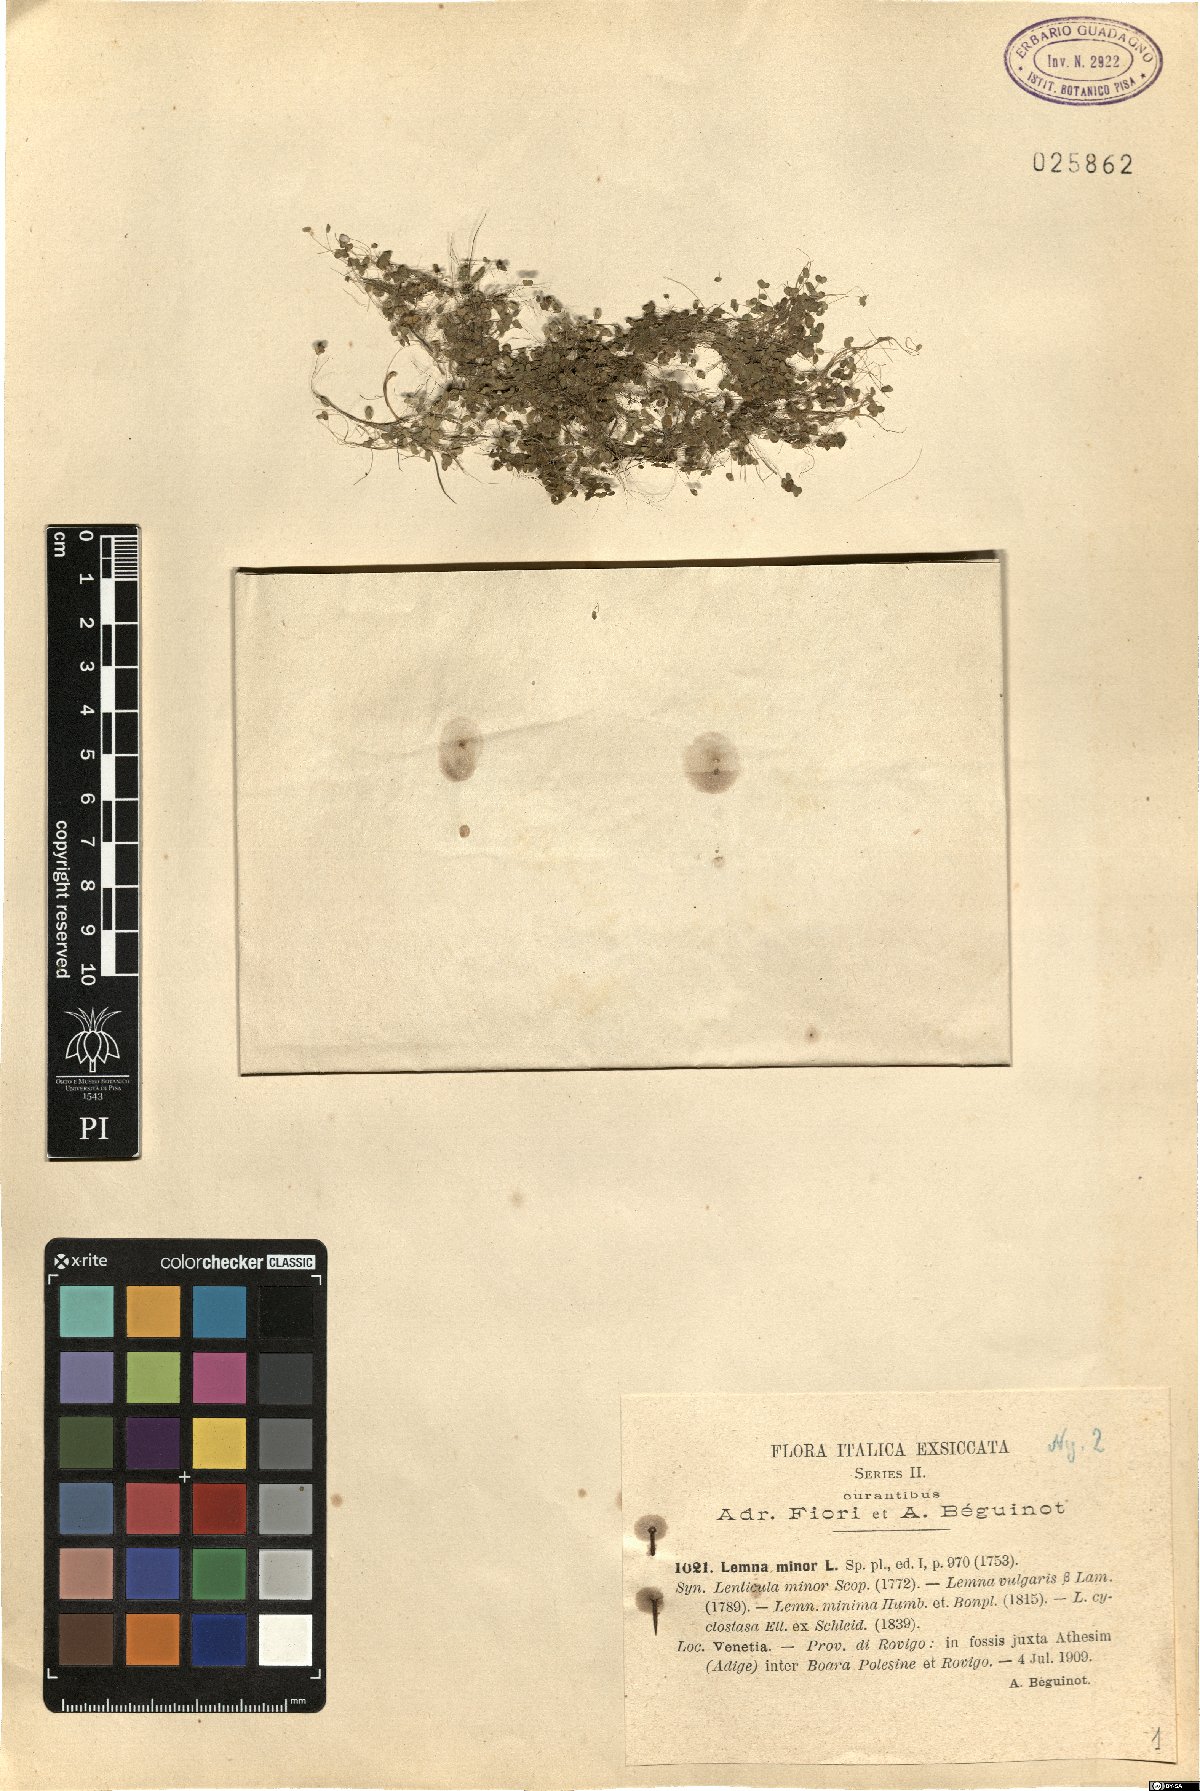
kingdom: Plantae
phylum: Tracheophyta
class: Liliopsida
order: Alismatales
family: Araceae
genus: Lemna
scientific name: Lemna minor
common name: Common duckweed
